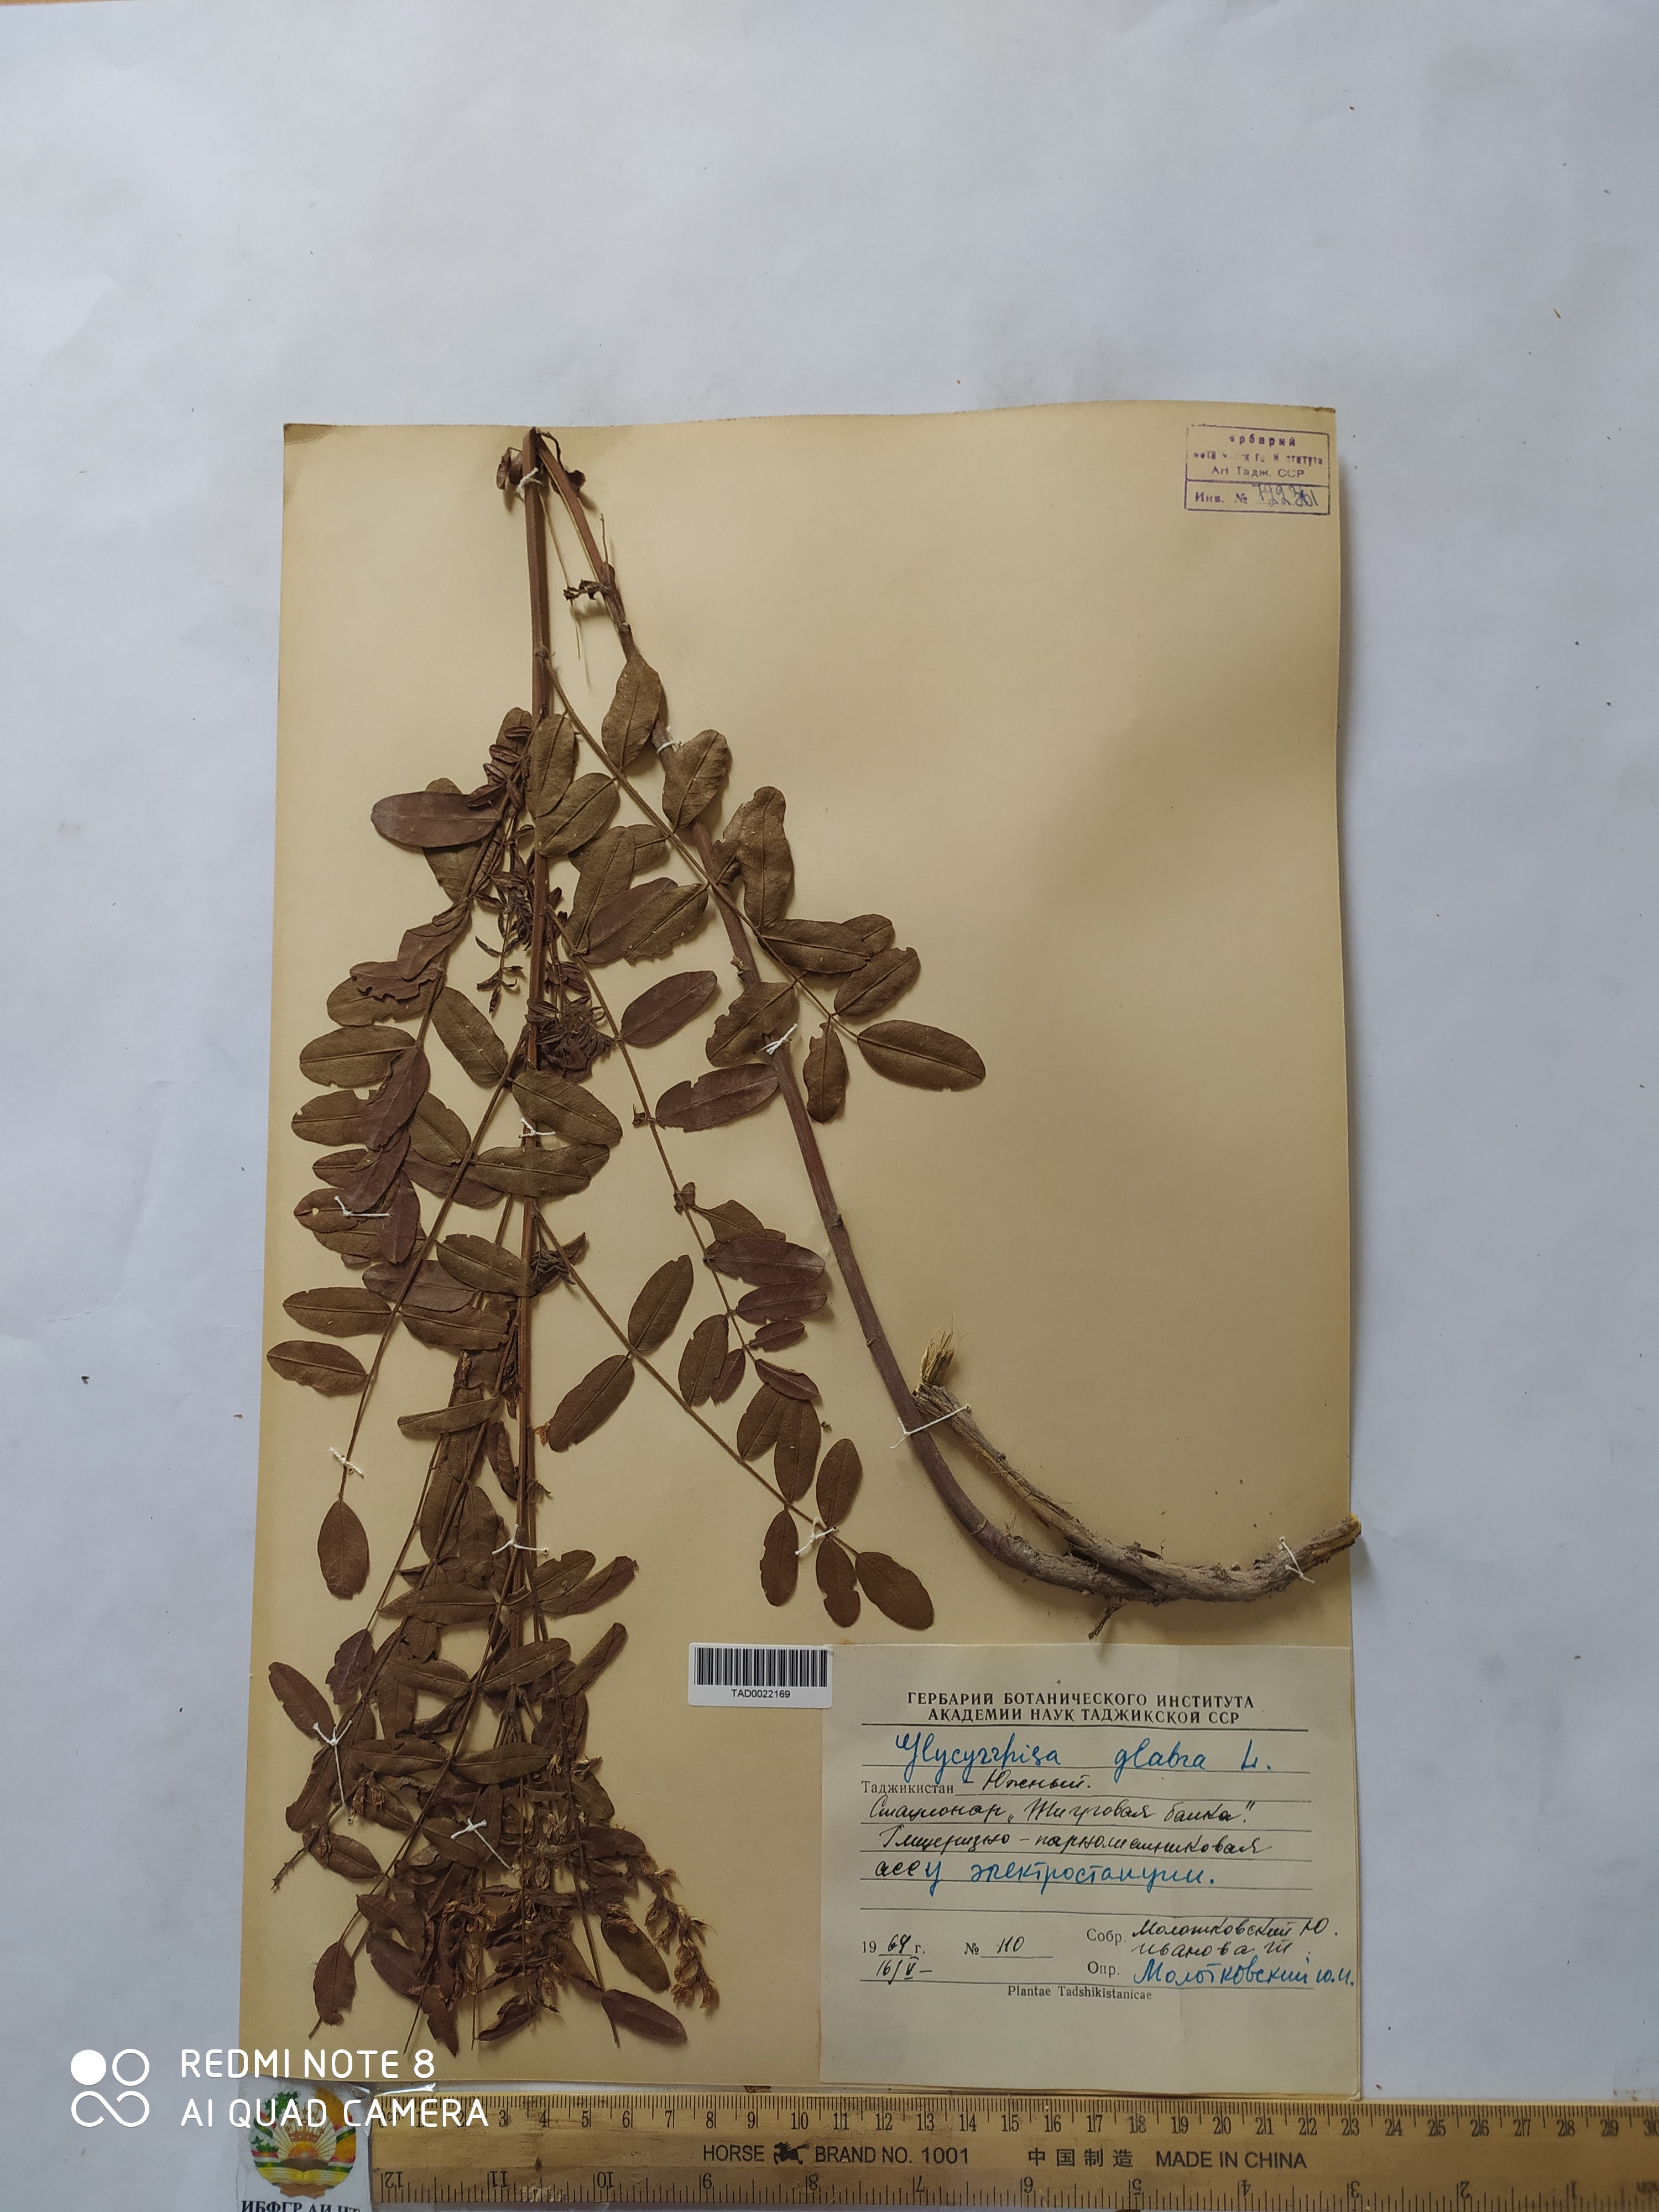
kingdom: Plantae
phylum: Tracheophyta
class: Magnoliopsida
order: Fabales
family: Fabaceae
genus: Glycyrrhiza
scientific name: Glycyrrhiza glabra
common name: Liquorice
